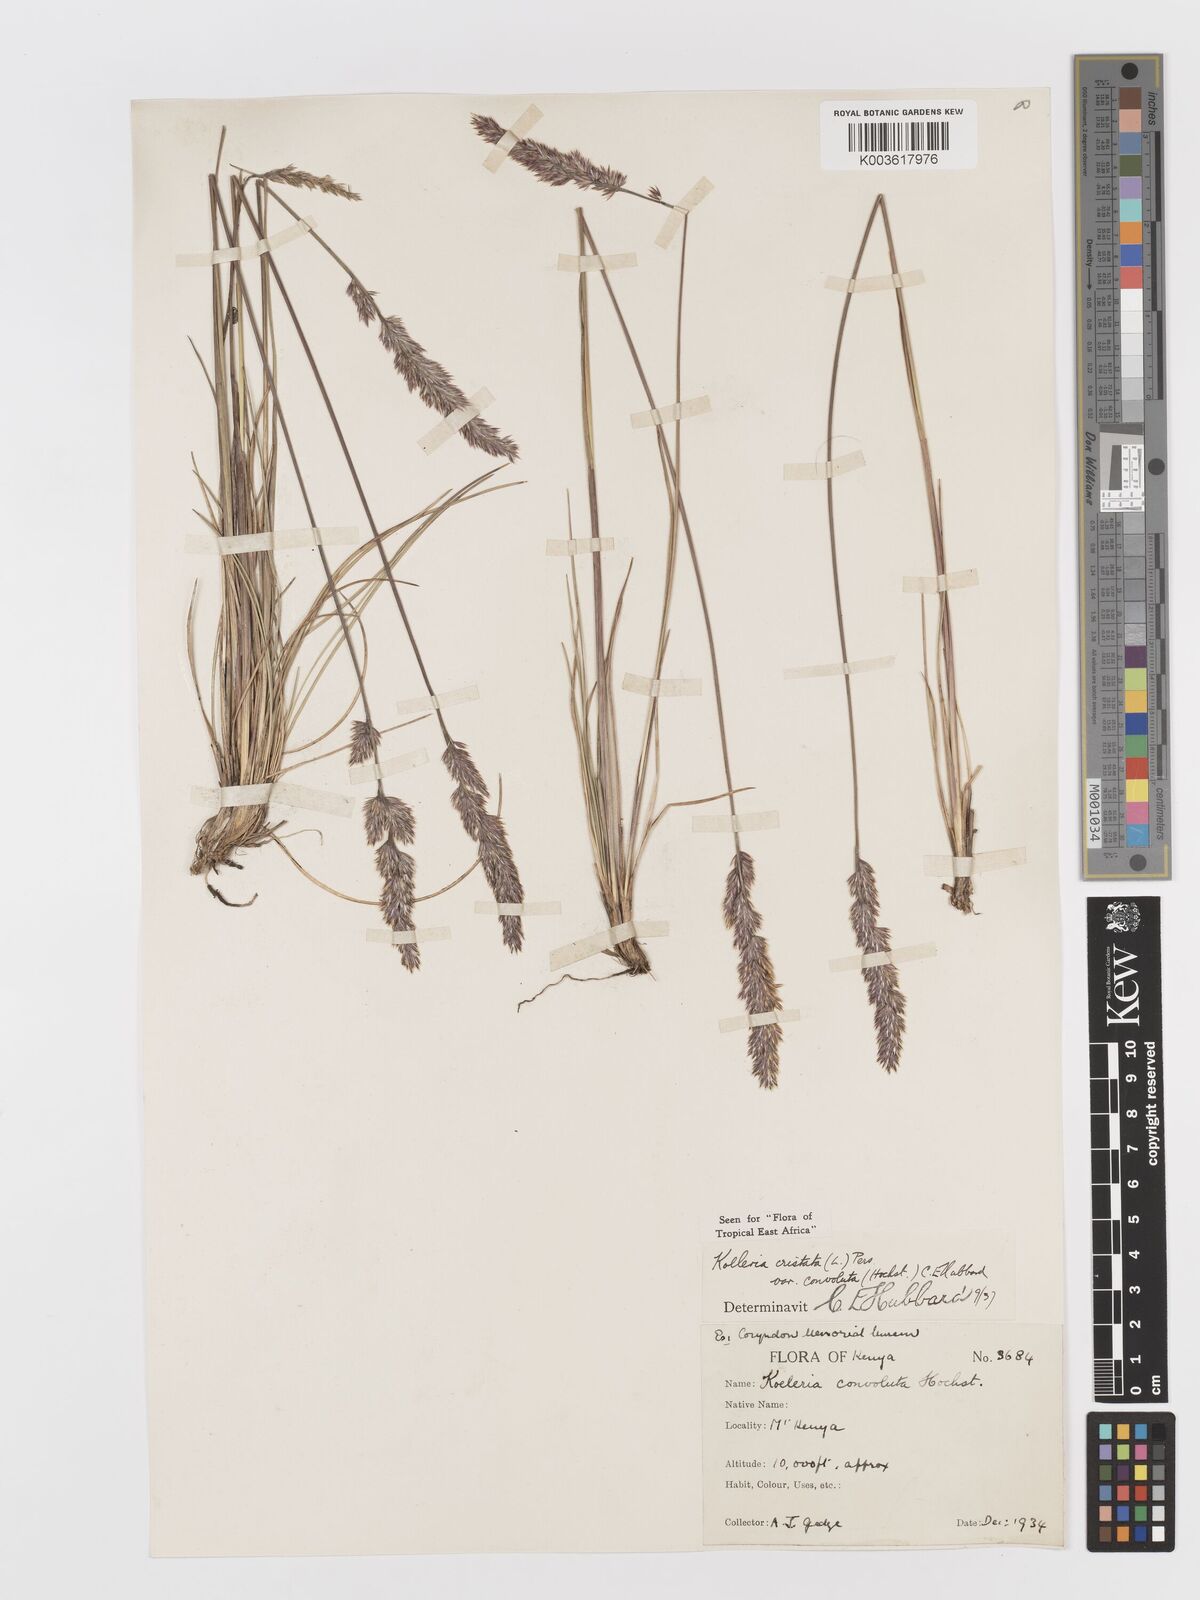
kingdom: Plantae
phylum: Tracheophyta
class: Liliopsida
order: Poales
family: Poaceae
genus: Koeleria
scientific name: Koeleria capensis
